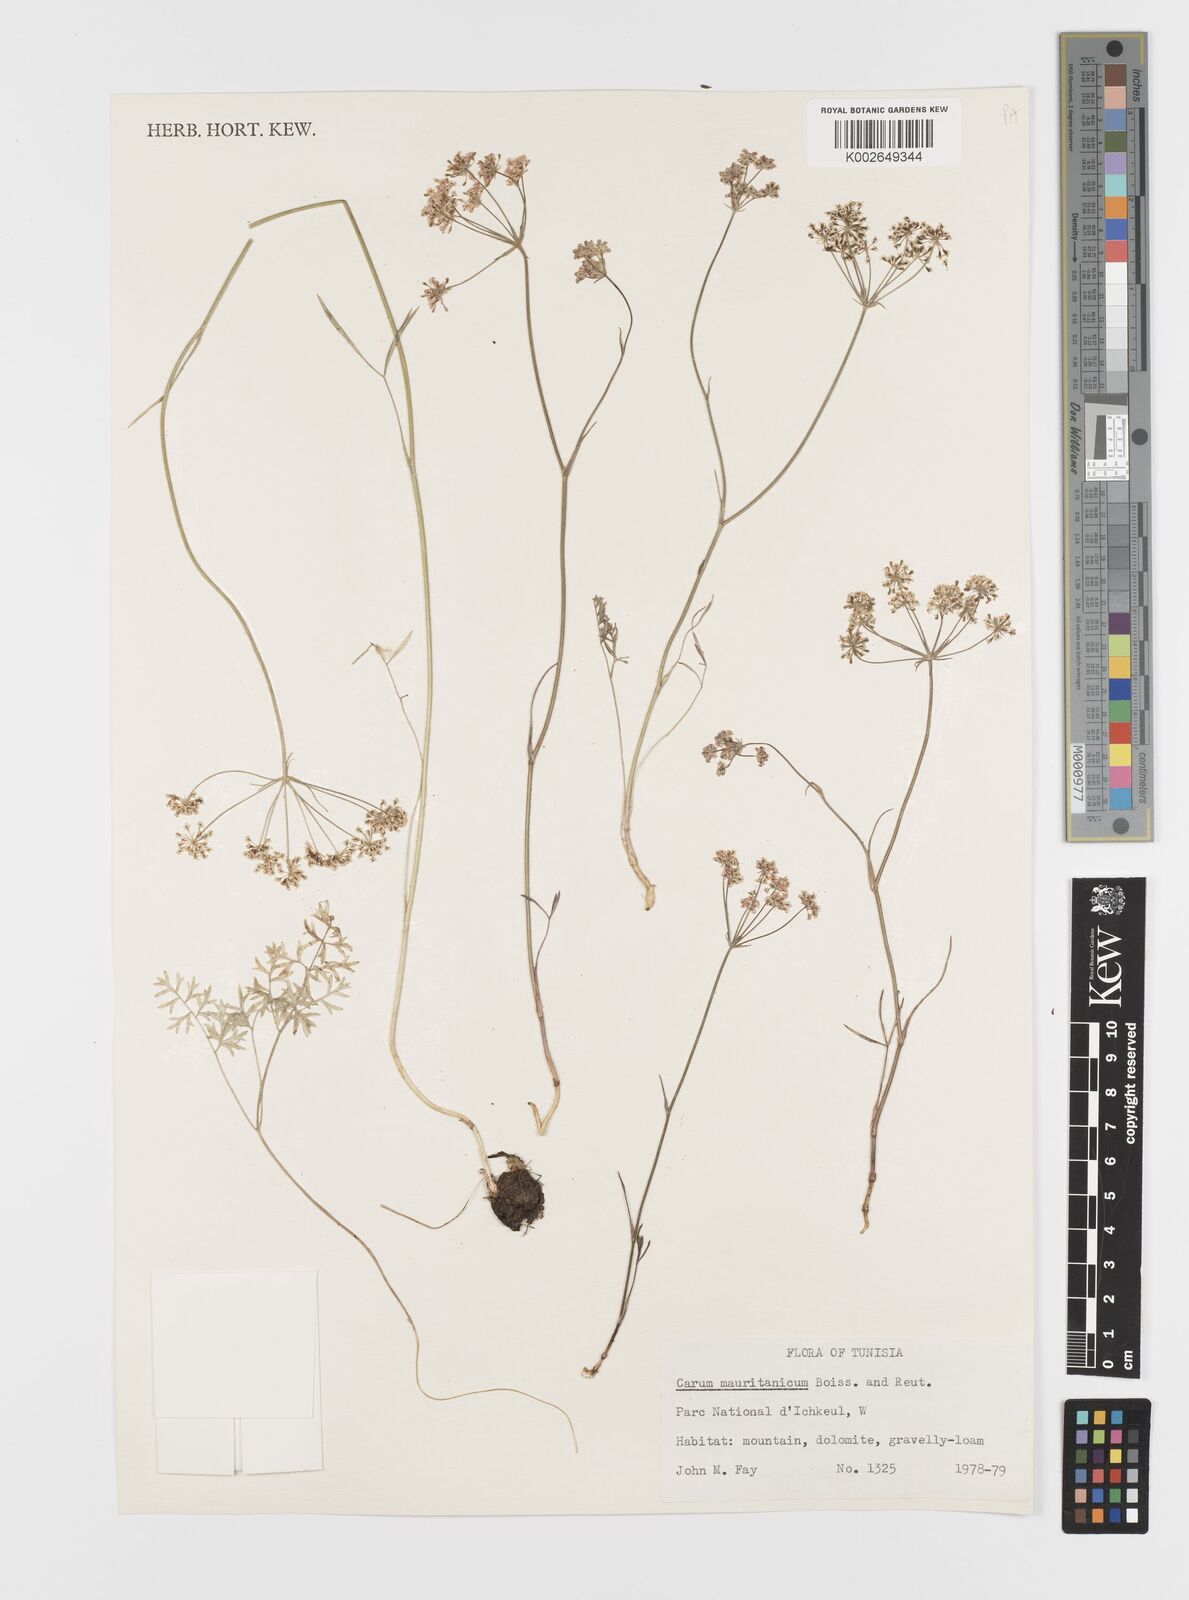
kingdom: Plantae
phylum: Tracheophyta
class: Magnoliopsida
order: Apiales
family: Apiaceae
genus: Bunium
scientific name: Bunium fontanesii
